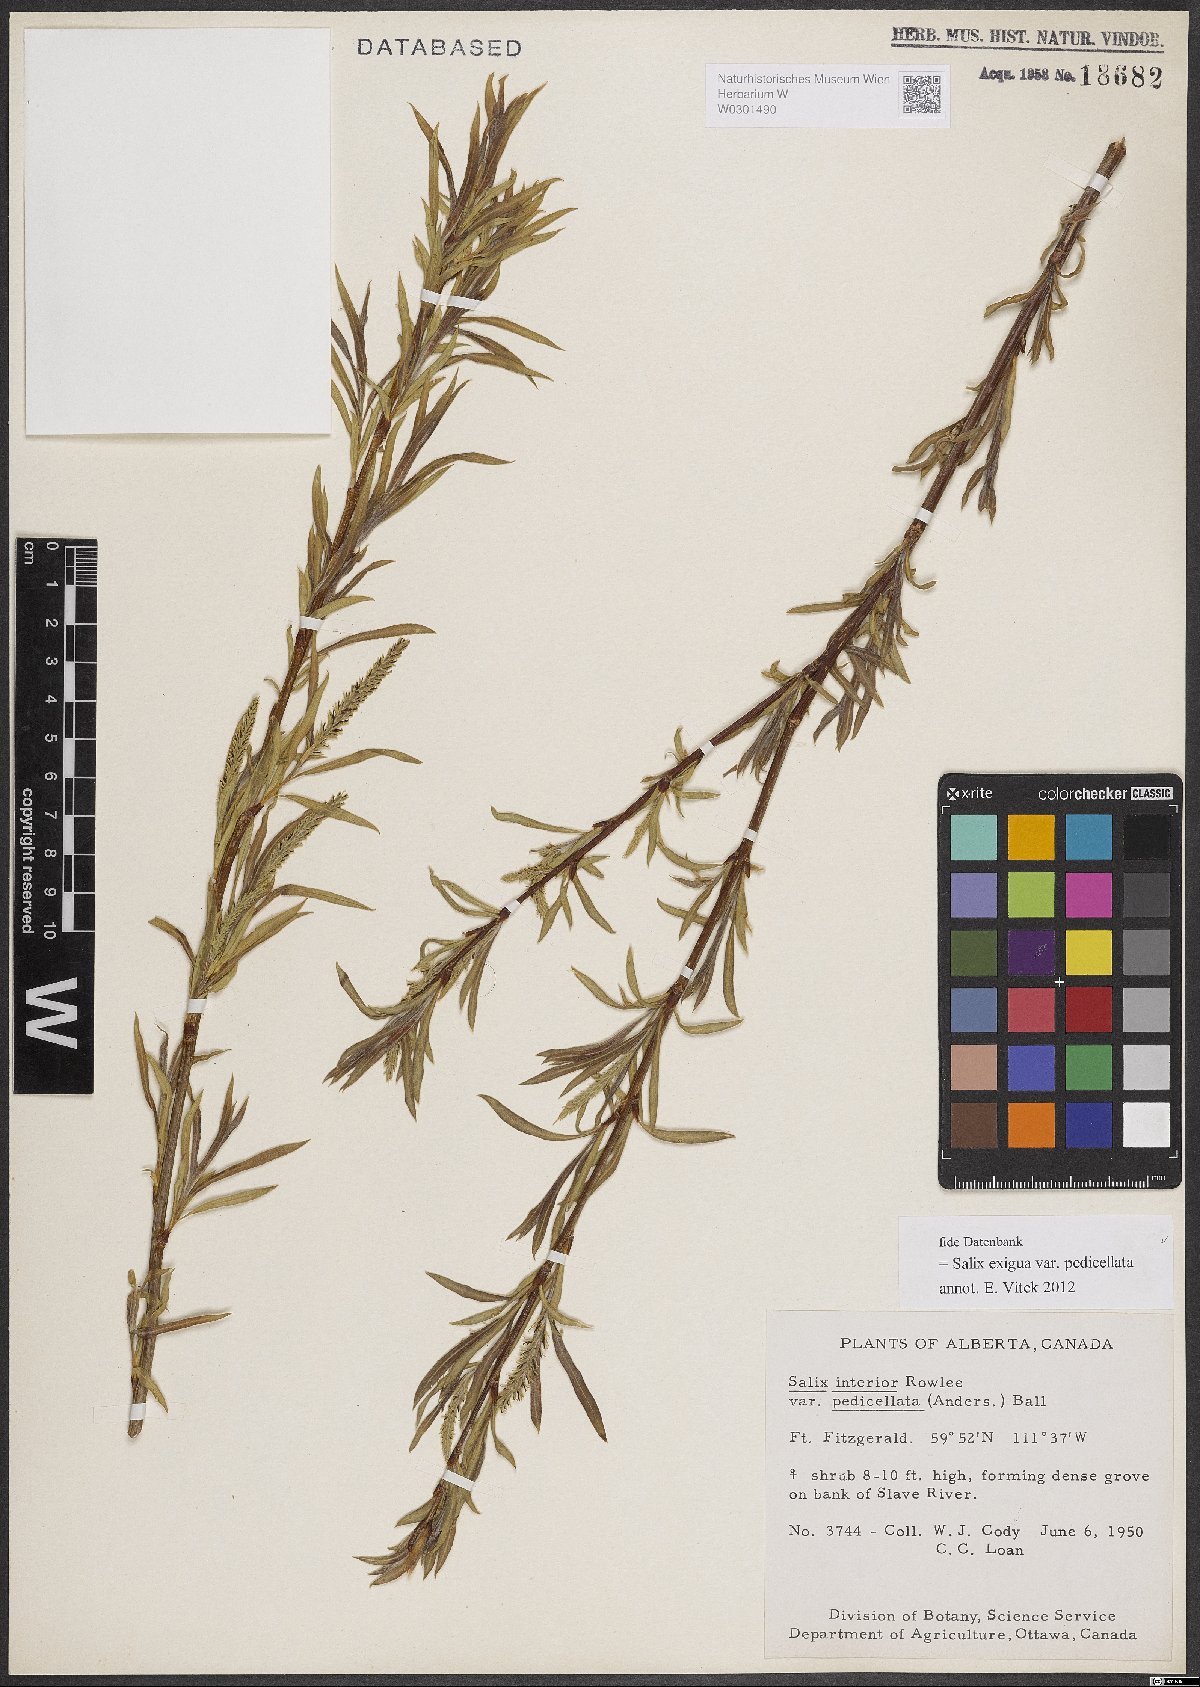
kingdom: Plantae
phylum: Tracheophyta
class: Magnoliopsida
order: Malpighiales
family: Salicaceae
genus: Salix
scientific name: Salix interior
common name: Sandbar willow
